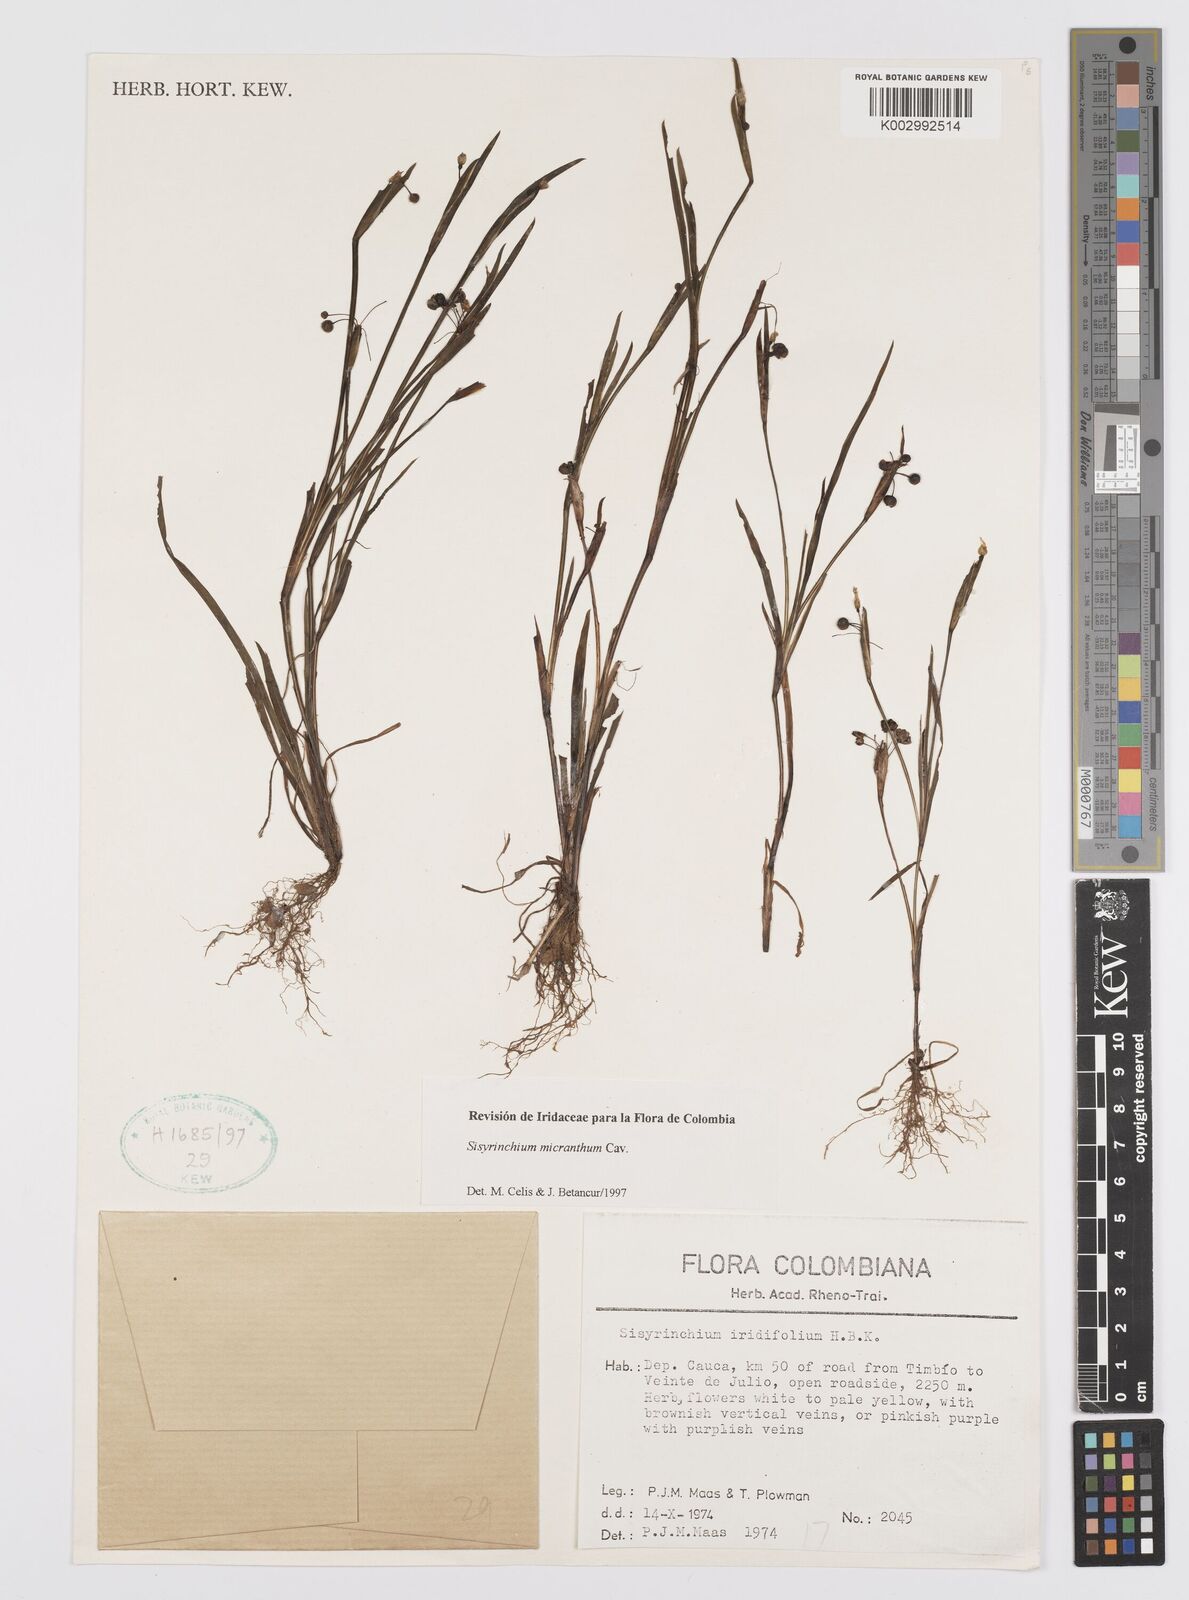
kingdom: Plantae
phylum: Tracheophyta
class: Liliopsida
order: Asparagales
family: Iridaceae
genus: Sisyrinchium
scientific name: Sisyrinchium micranthum
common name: Bermuda pigroot
